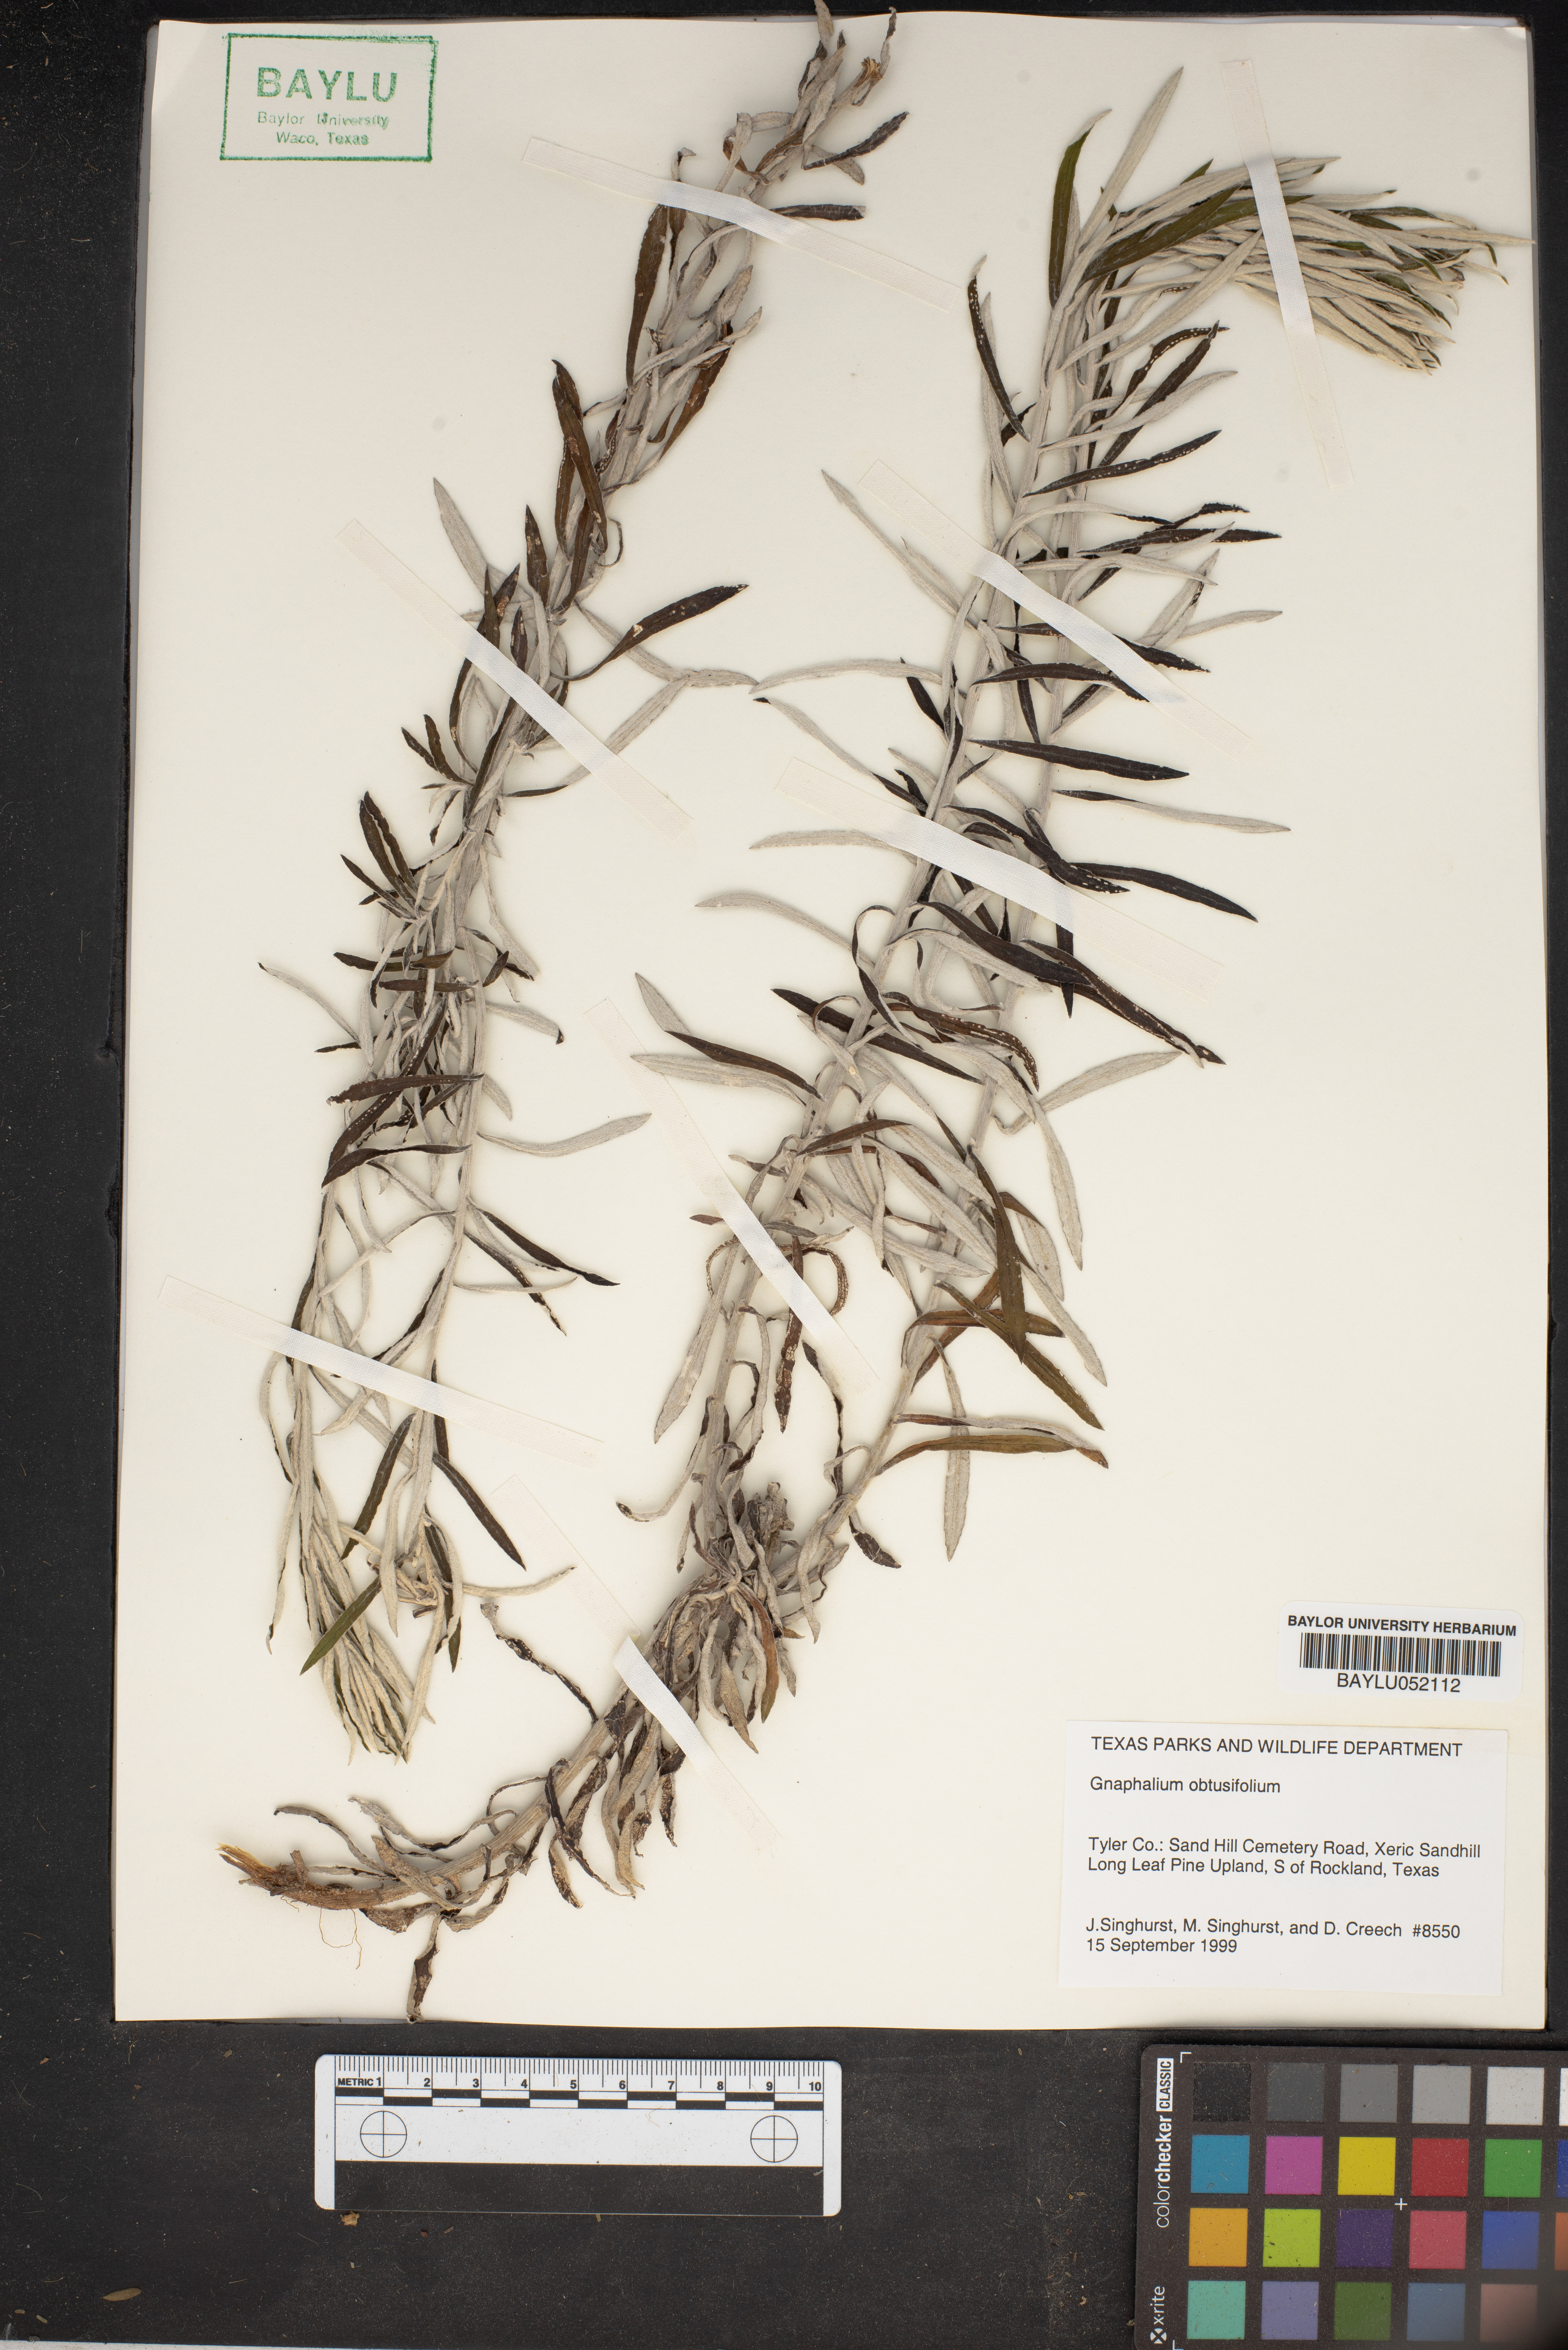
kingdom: Plantae
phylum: Tracheophyta
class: Magnoliopsida
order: Asterales
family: Asteraceae
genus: Pseudognaphalium
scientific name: Pseudognaphalium obtusifolium
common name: Eastern rabbit-tobacco
